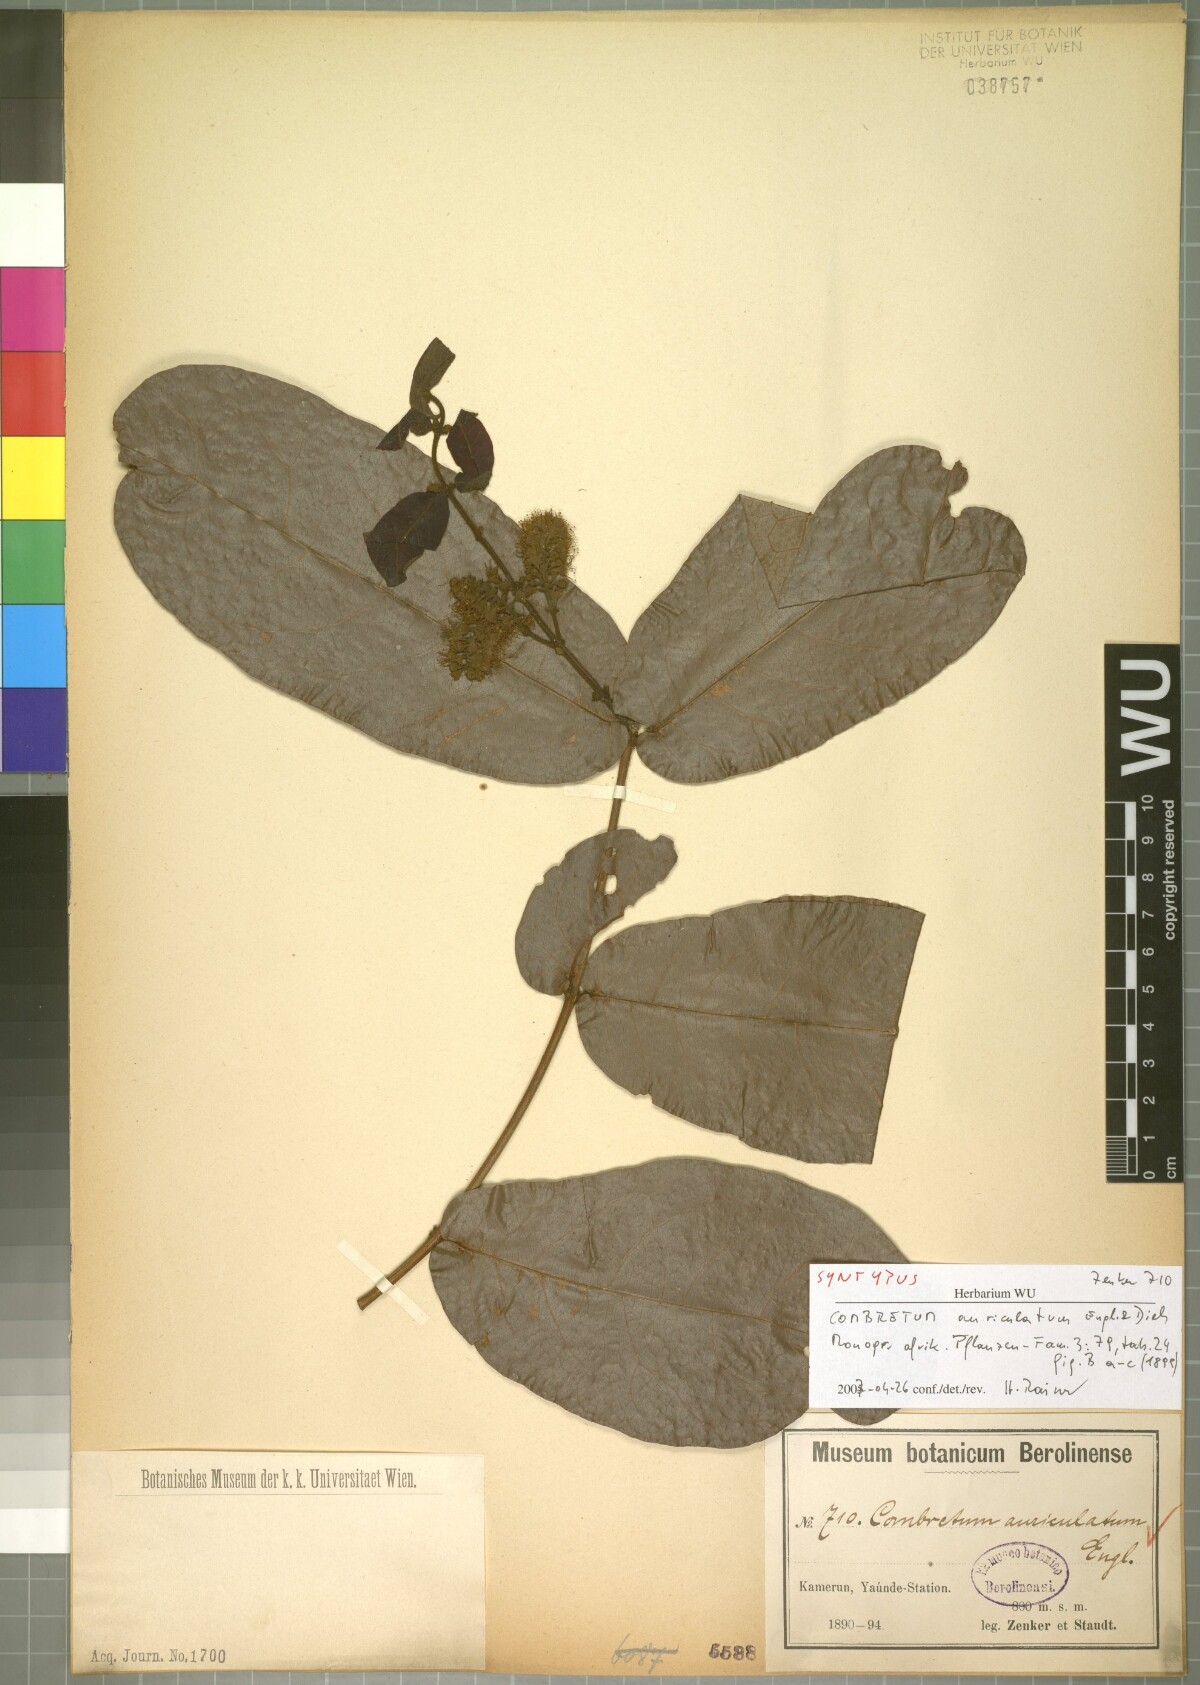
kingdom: Plantae
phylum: Tracheophyta
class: Magnoliopsida
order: Myrtales
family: Combretaceae
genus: Combretum
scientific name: Combretum auriculatum
